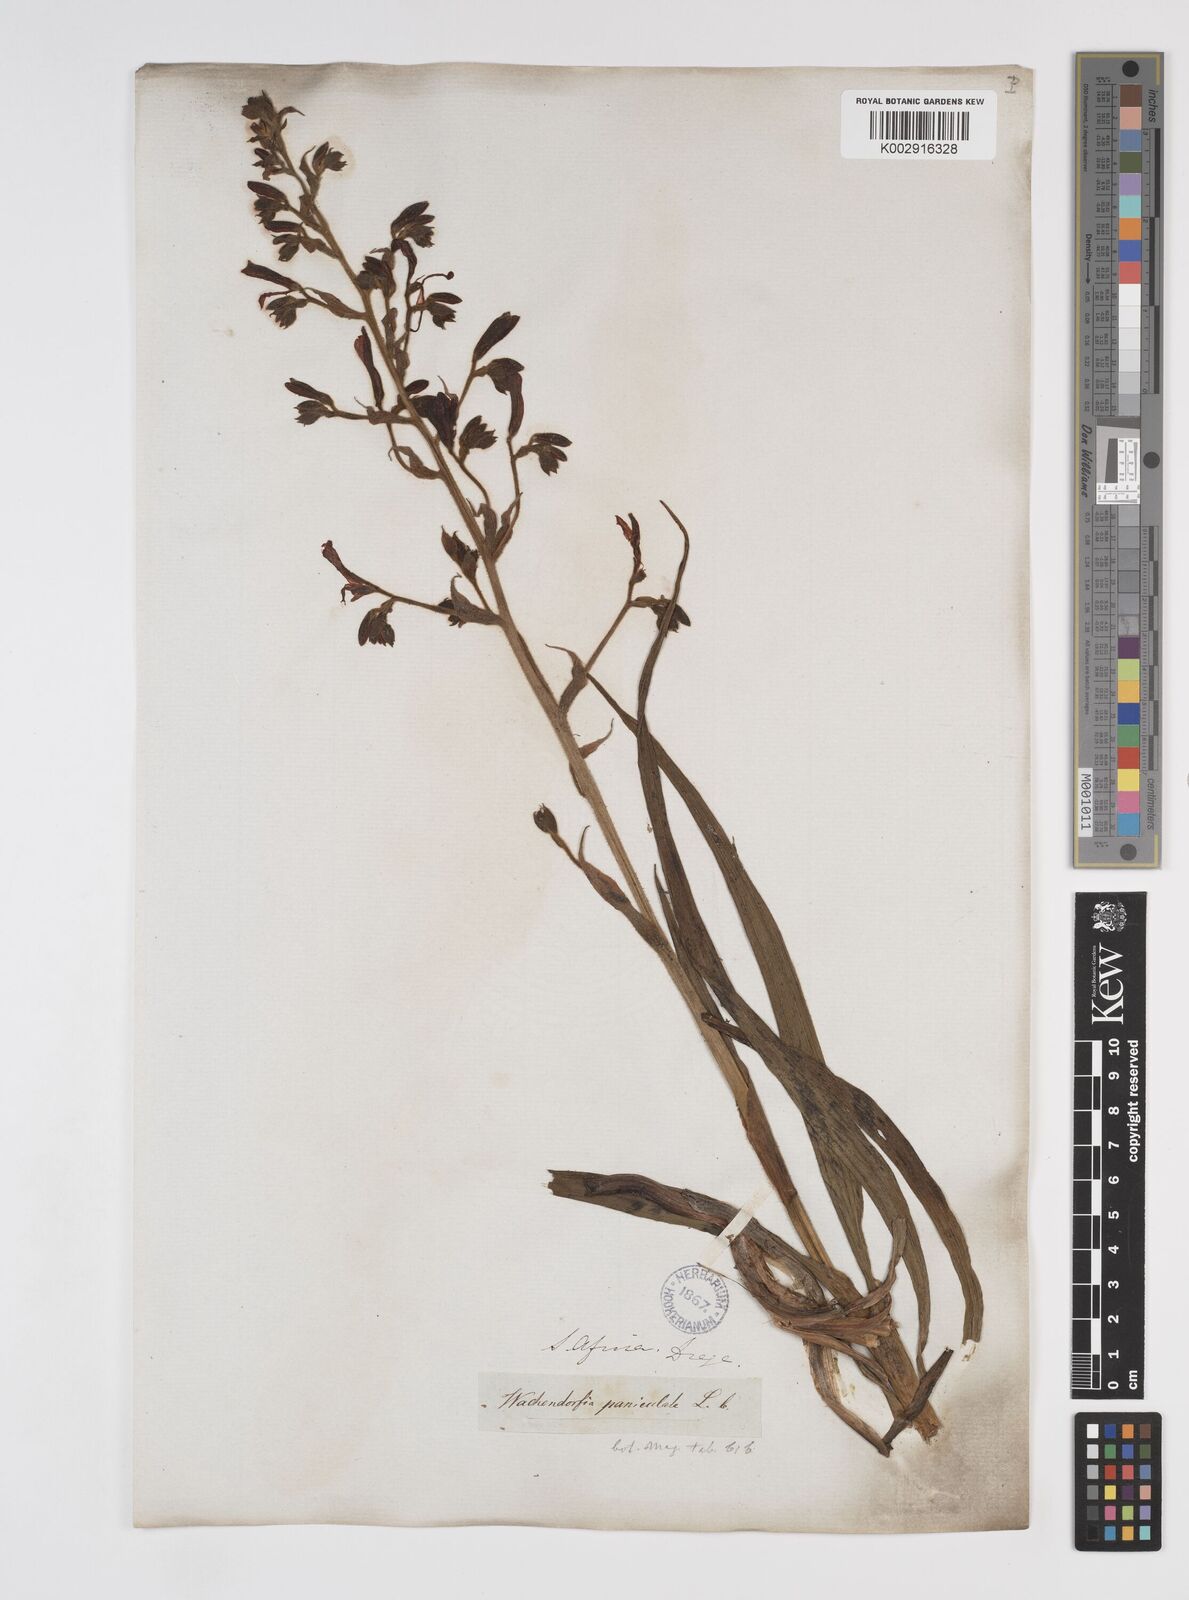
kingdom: Plantae
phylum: Tracheophyta
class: Liliopsida
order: Commelinales
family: Haemodoraceae
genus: Wachendorfia
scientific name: Wachendorfia paniculata
